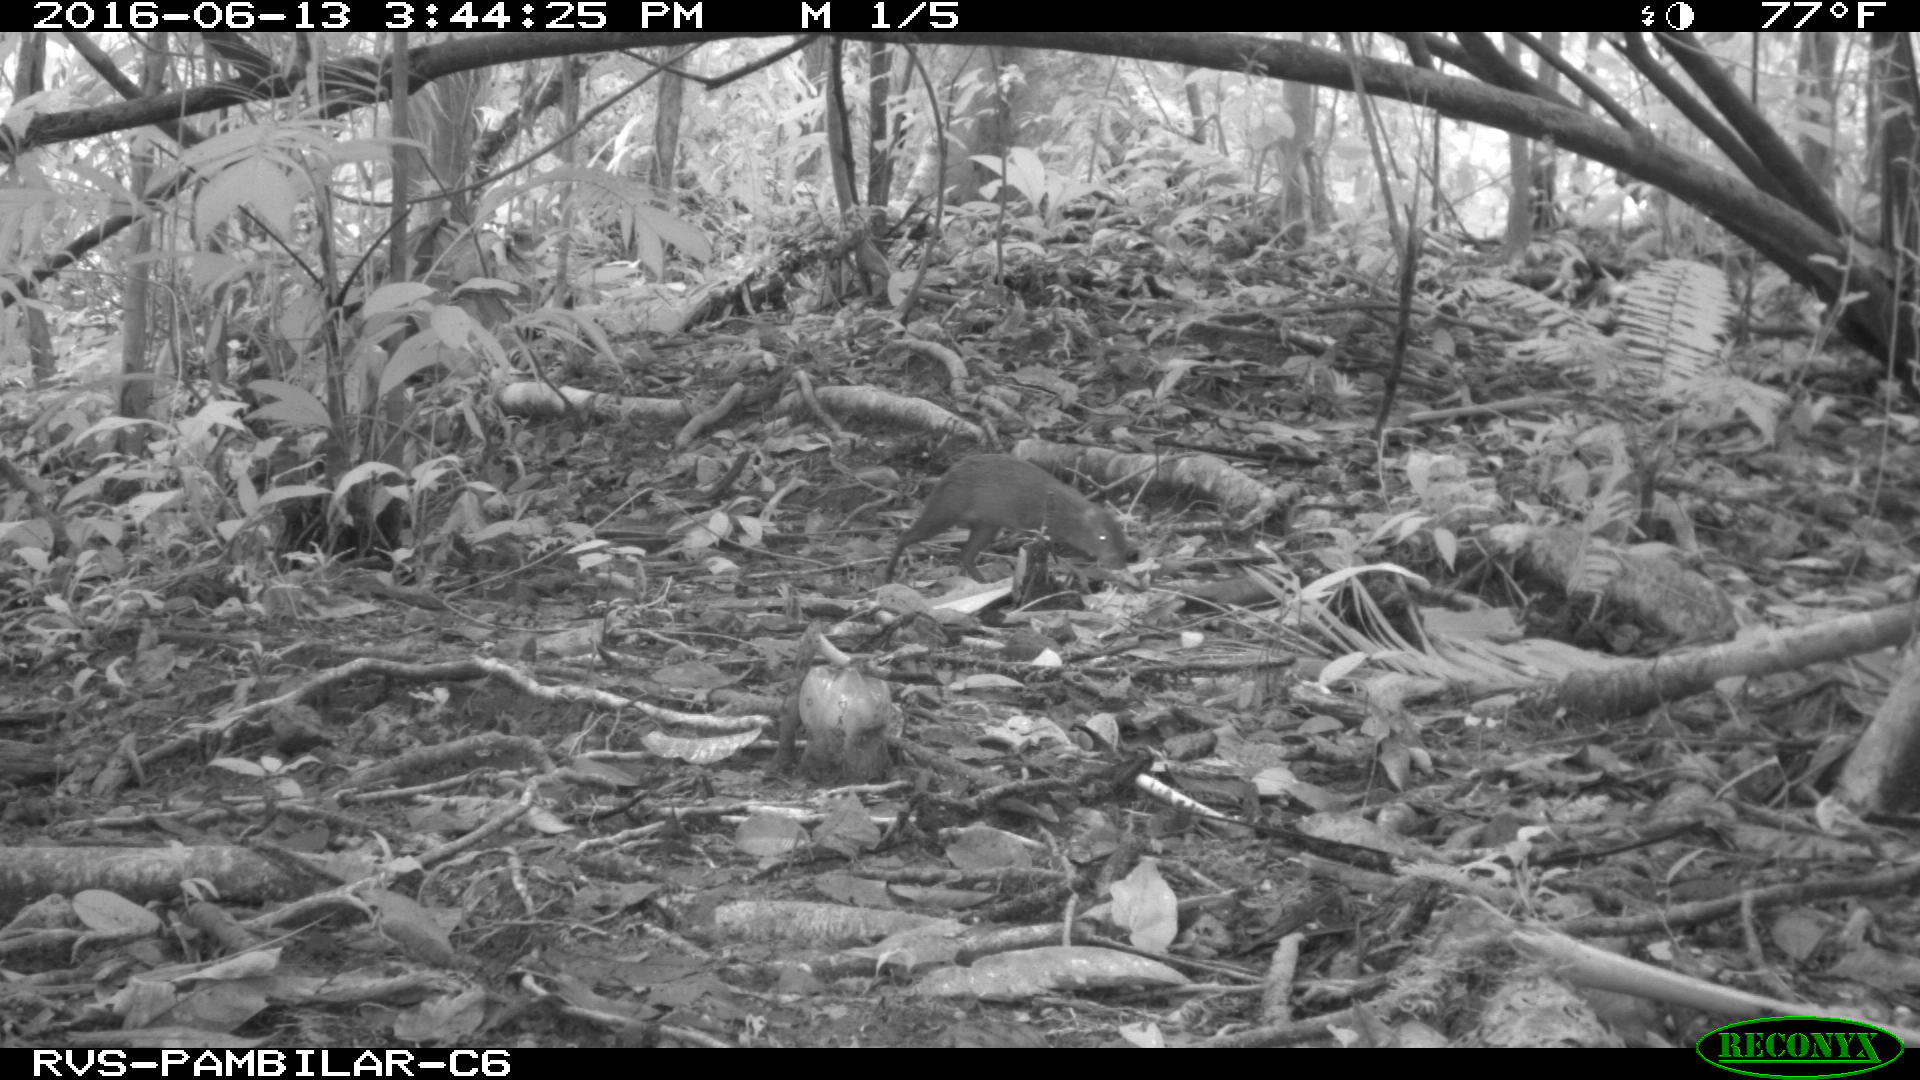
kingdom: Animalia
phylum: Chordata
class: Mammalia
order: Rodentia
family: Dasyproctidae
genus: Dasyprocta
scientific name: Dasyprocta punctata
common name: Central american agouti
